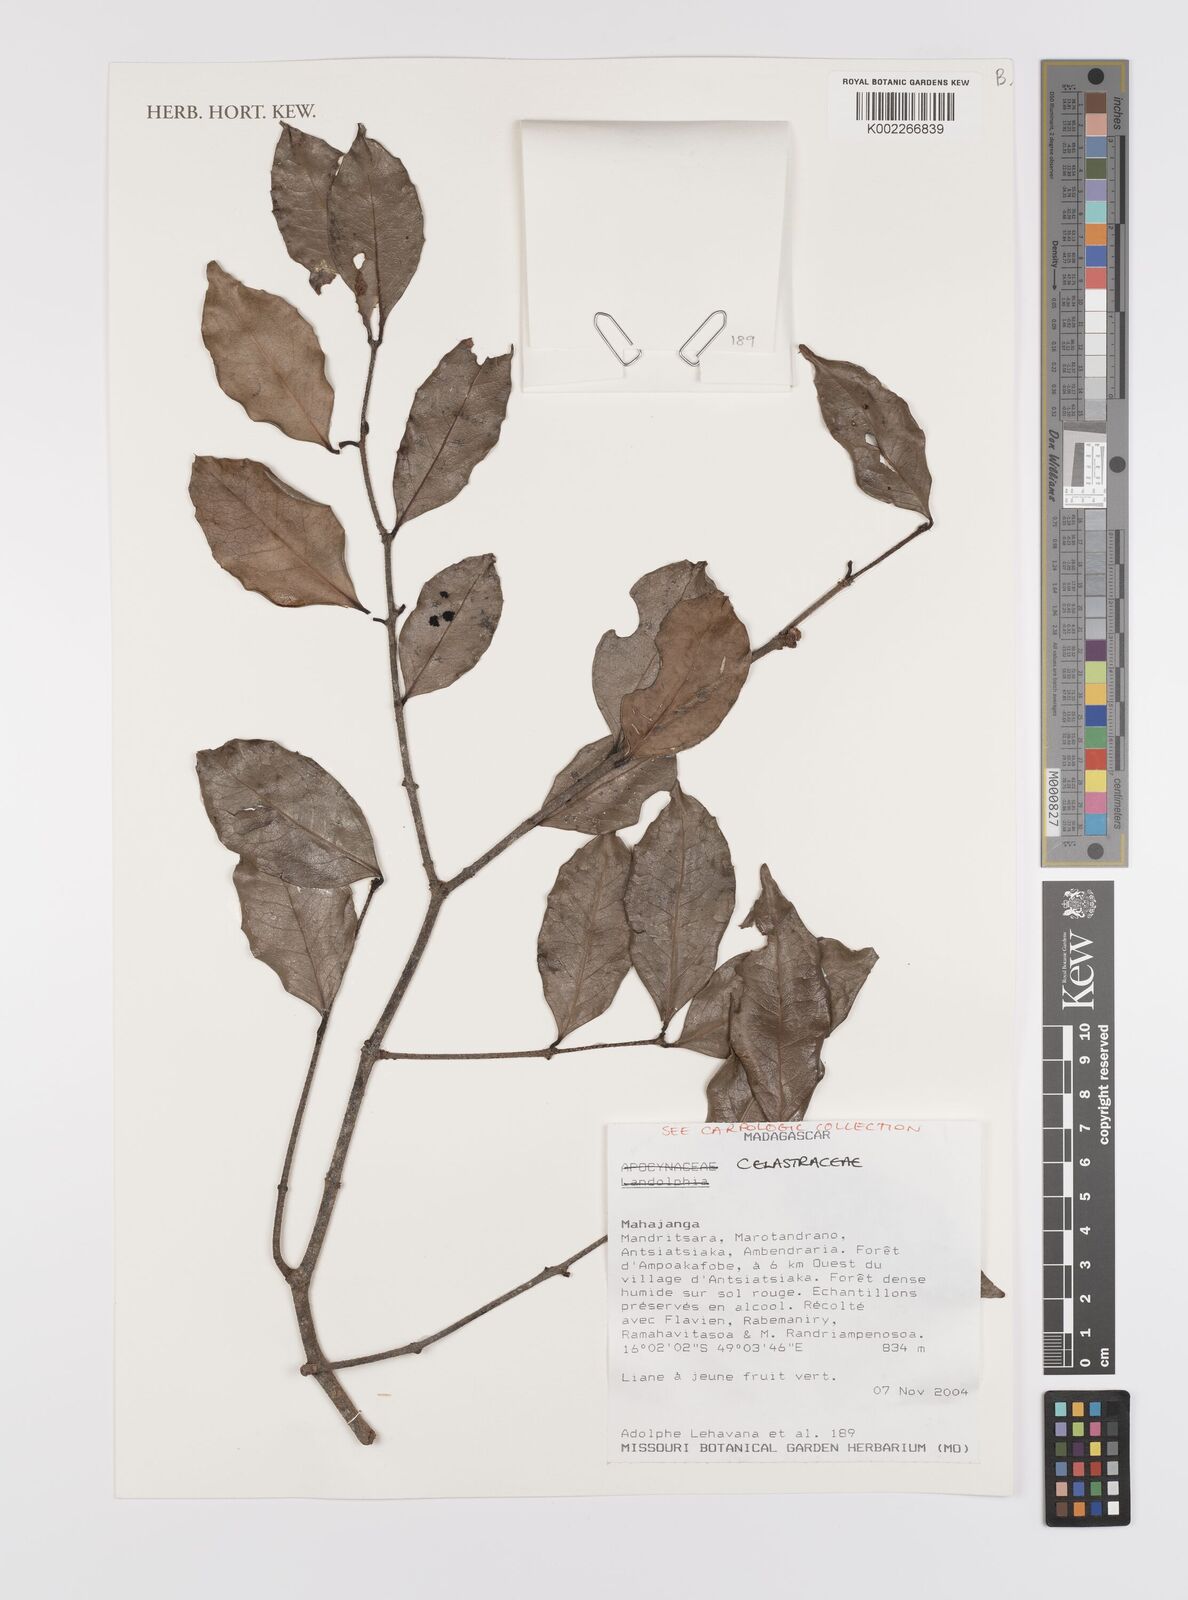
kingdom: Plantae
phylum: Tracheophyta
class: Magnoliopsida
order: Celastrales
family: Celastraceae
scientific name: Celastraceae
